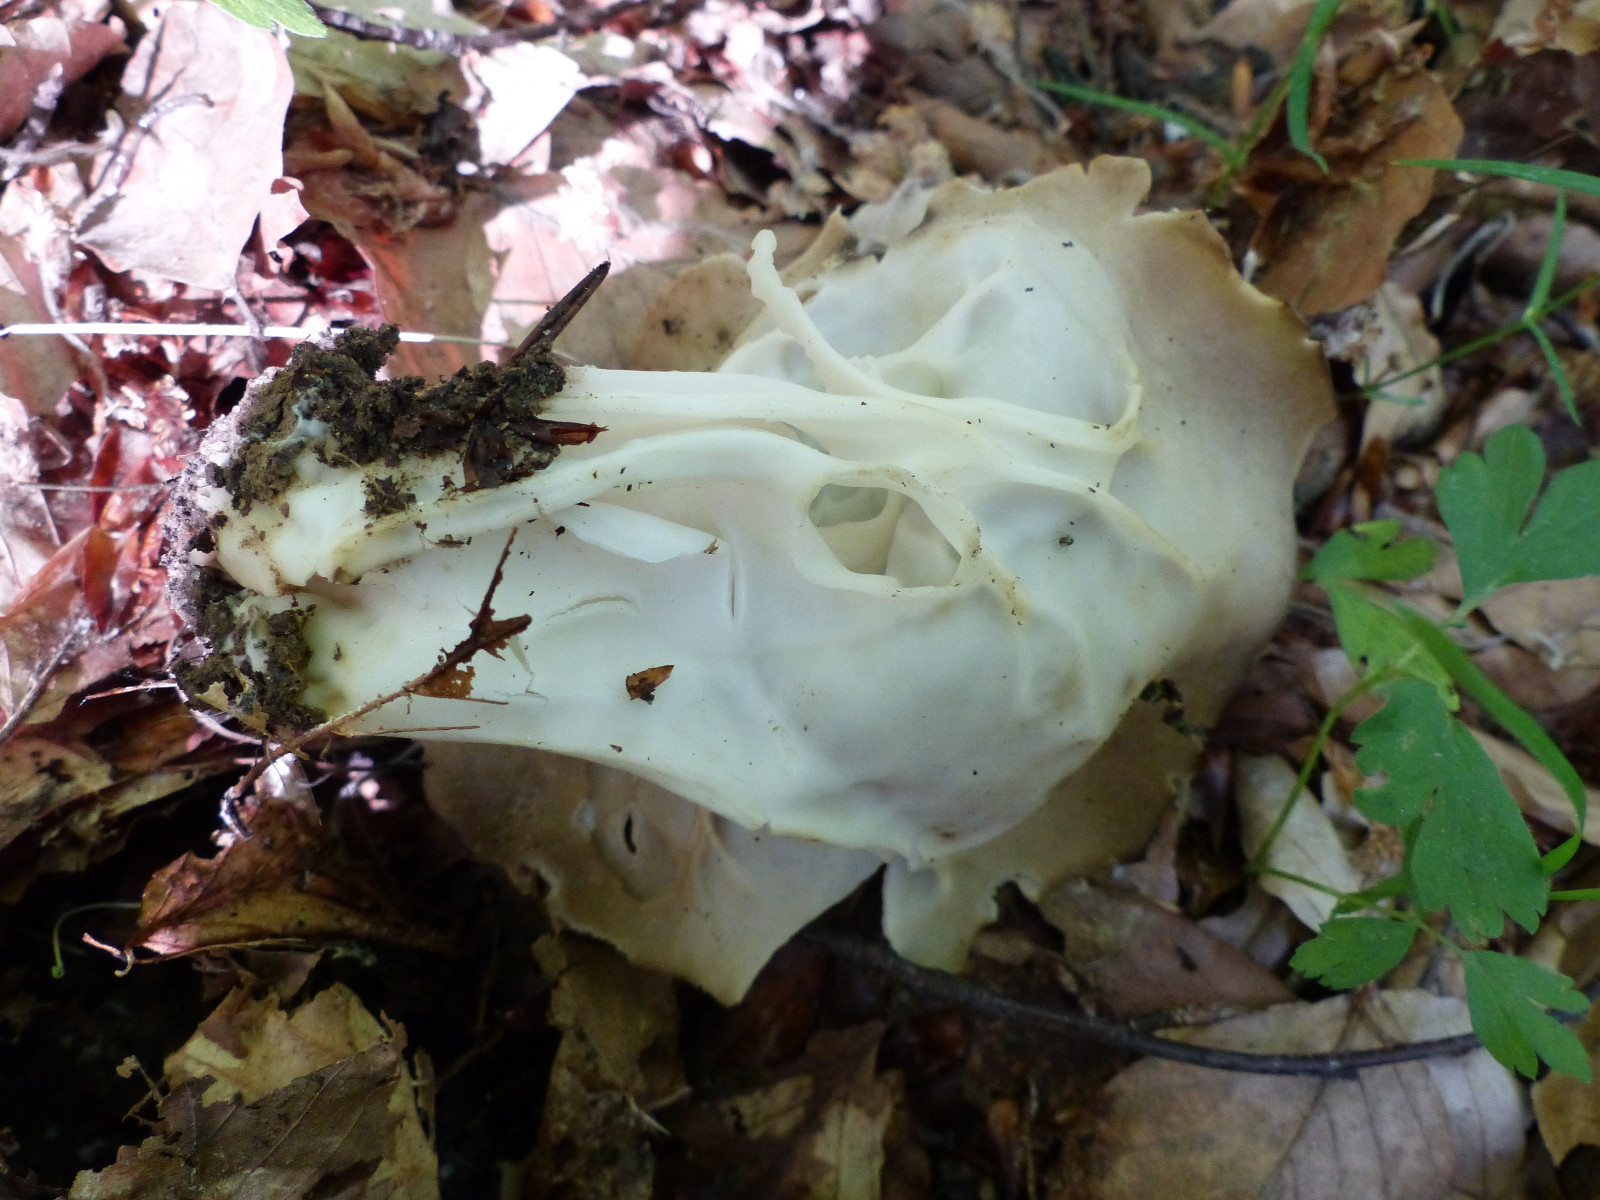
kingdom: Fungi
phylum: Ascomycota
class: Pezizomycetes
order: Pezizales
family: Helvellaceae
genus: Helvella
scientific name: Helvella acetabulum
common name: pokal-foldhat
